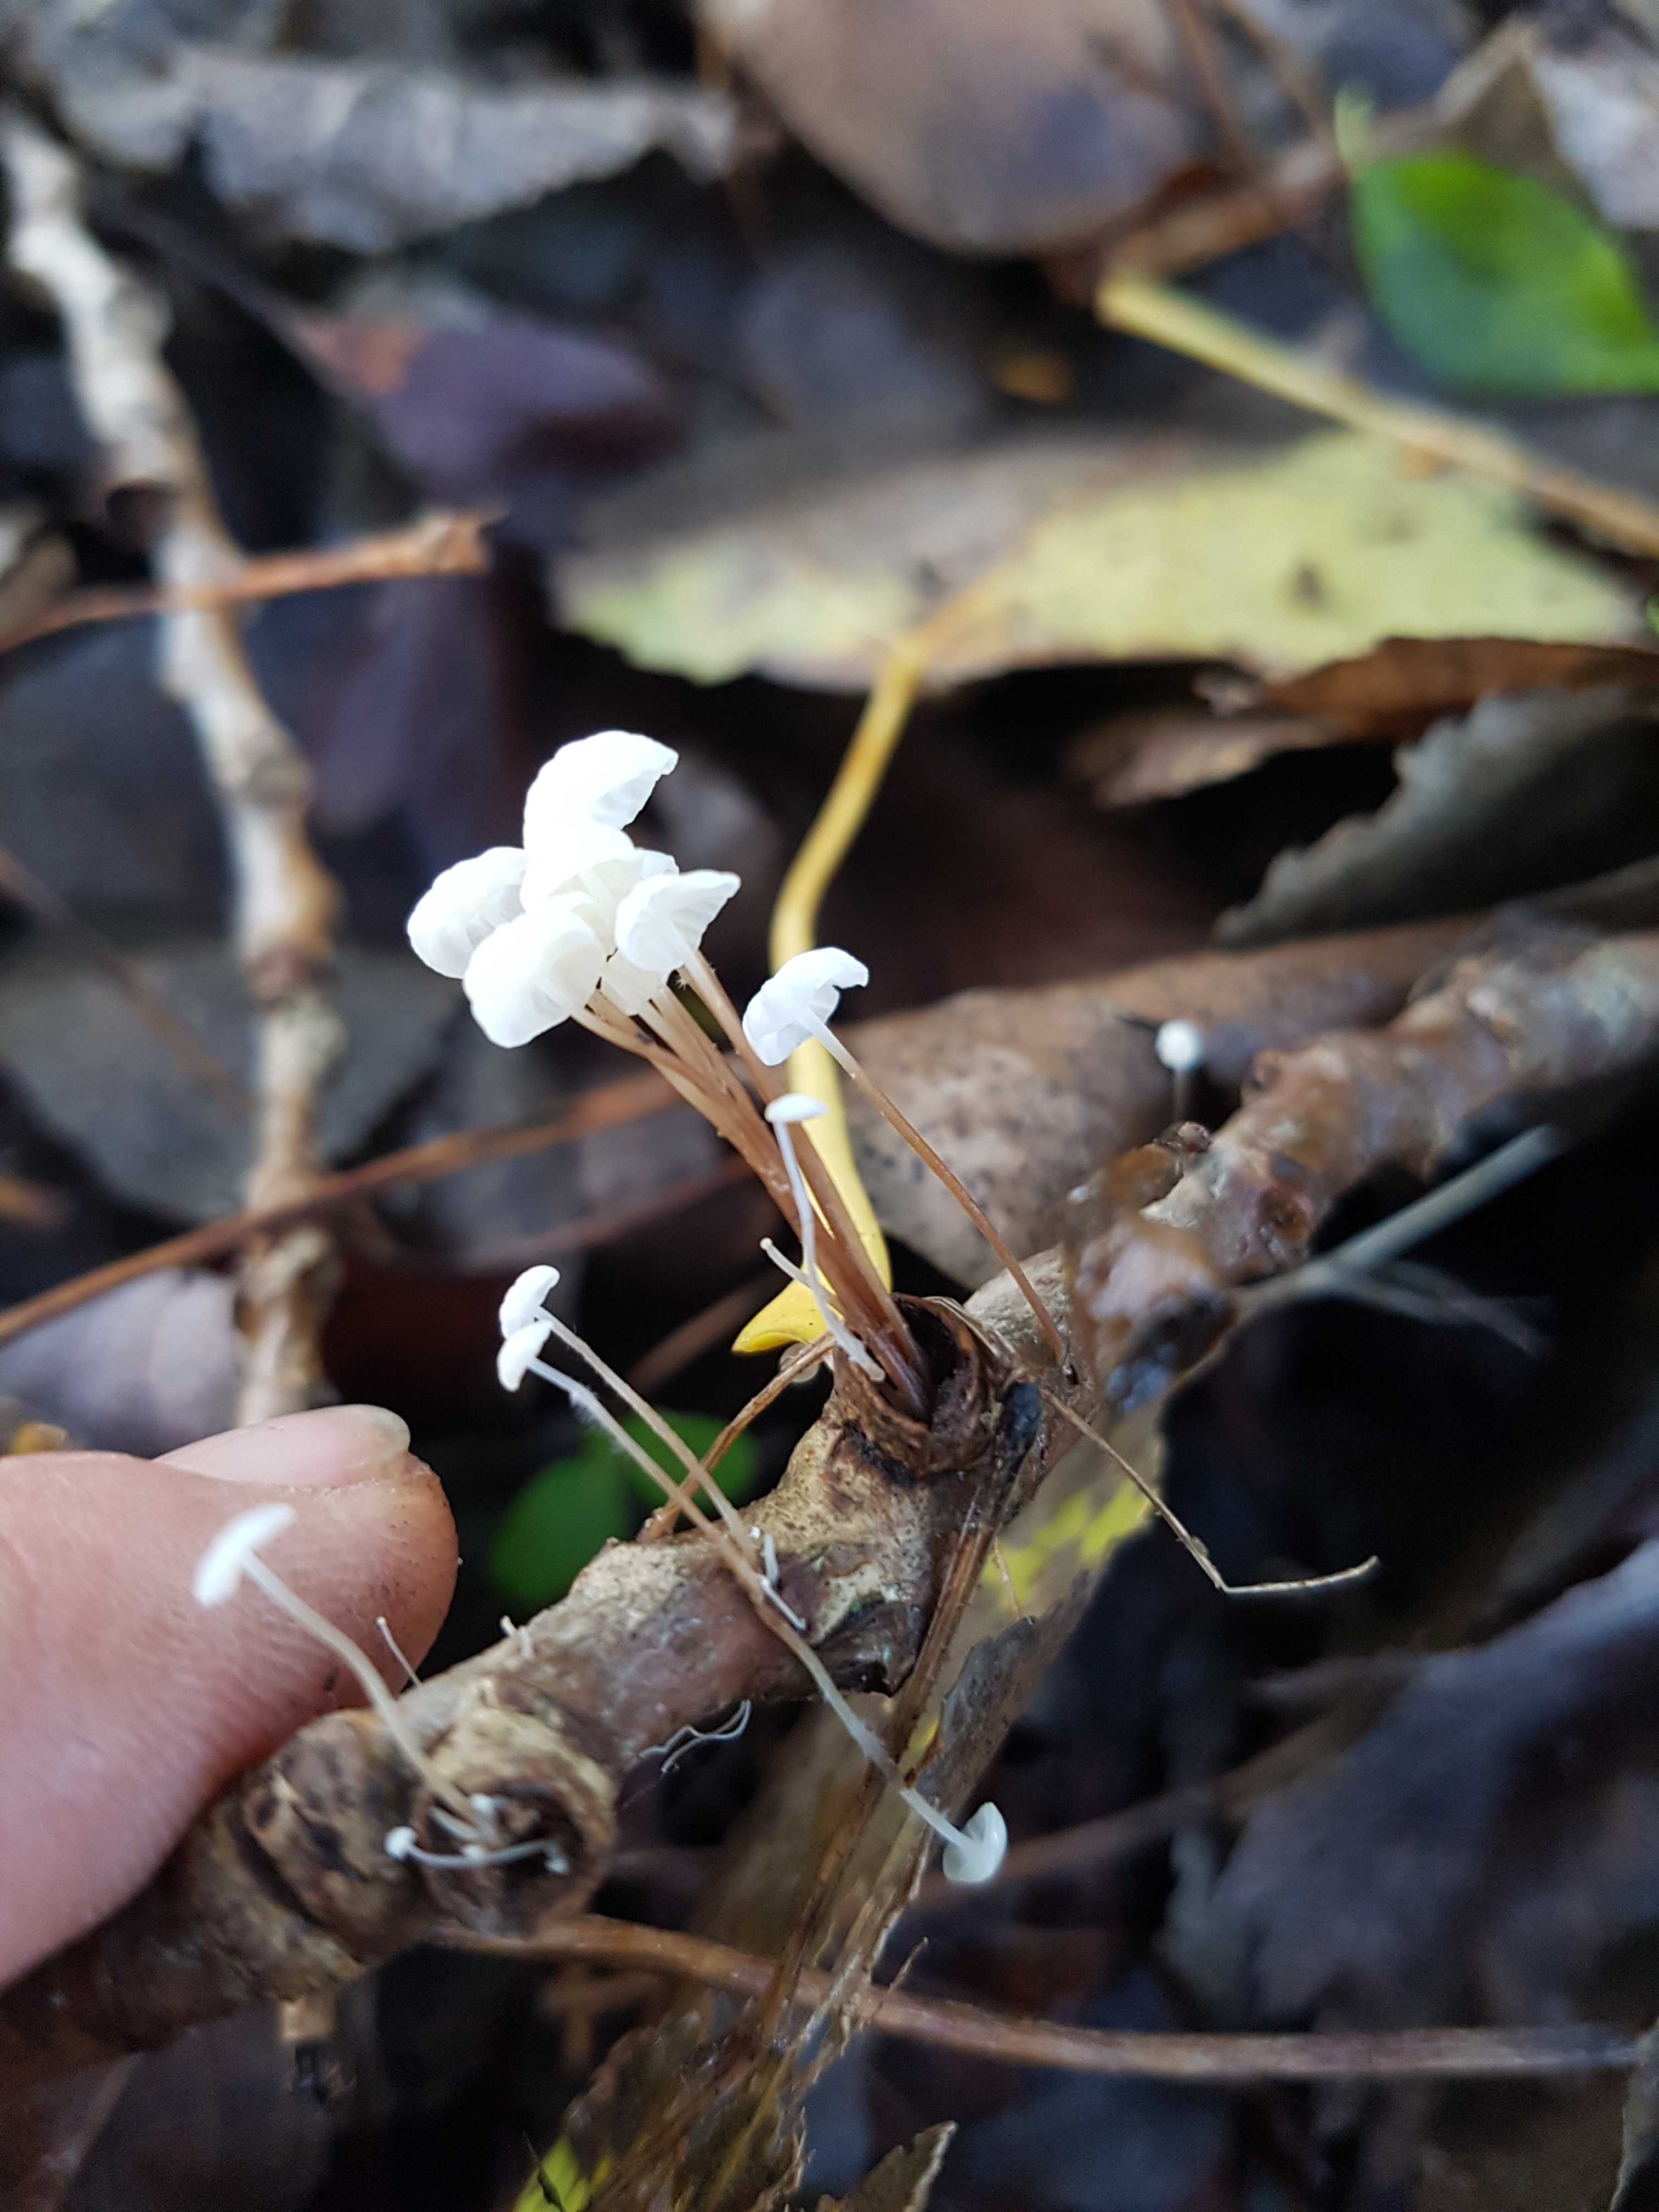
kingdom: Fungi
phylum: Basidiomycota
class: Agaricomycetes
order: Agaricales
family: Marasmiaceae
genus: Marasmius
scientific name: Marasmius epiphyllus
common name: blad-bruskhat
